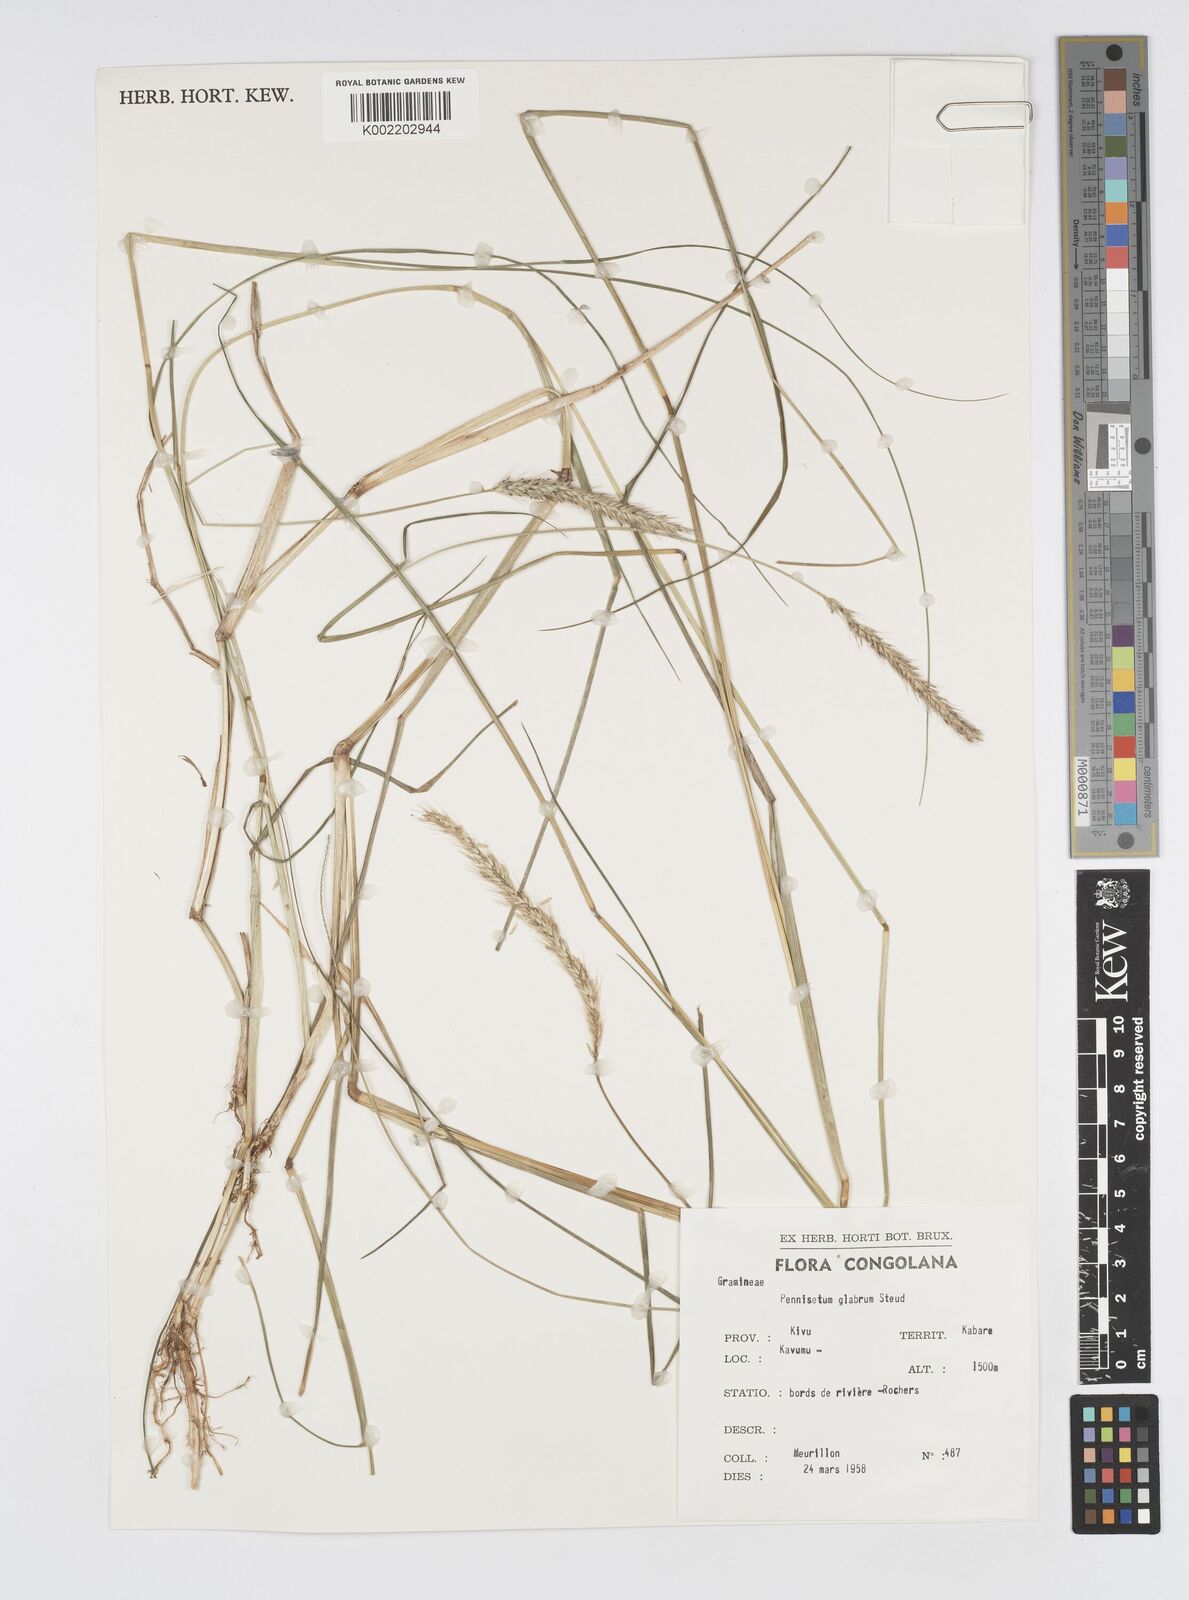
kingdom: Plantae
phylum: Tracheophyta
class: Liliopsida
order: Poales
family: Poaceae
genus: Cenchrus
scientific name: Cenchrus geniculatus
